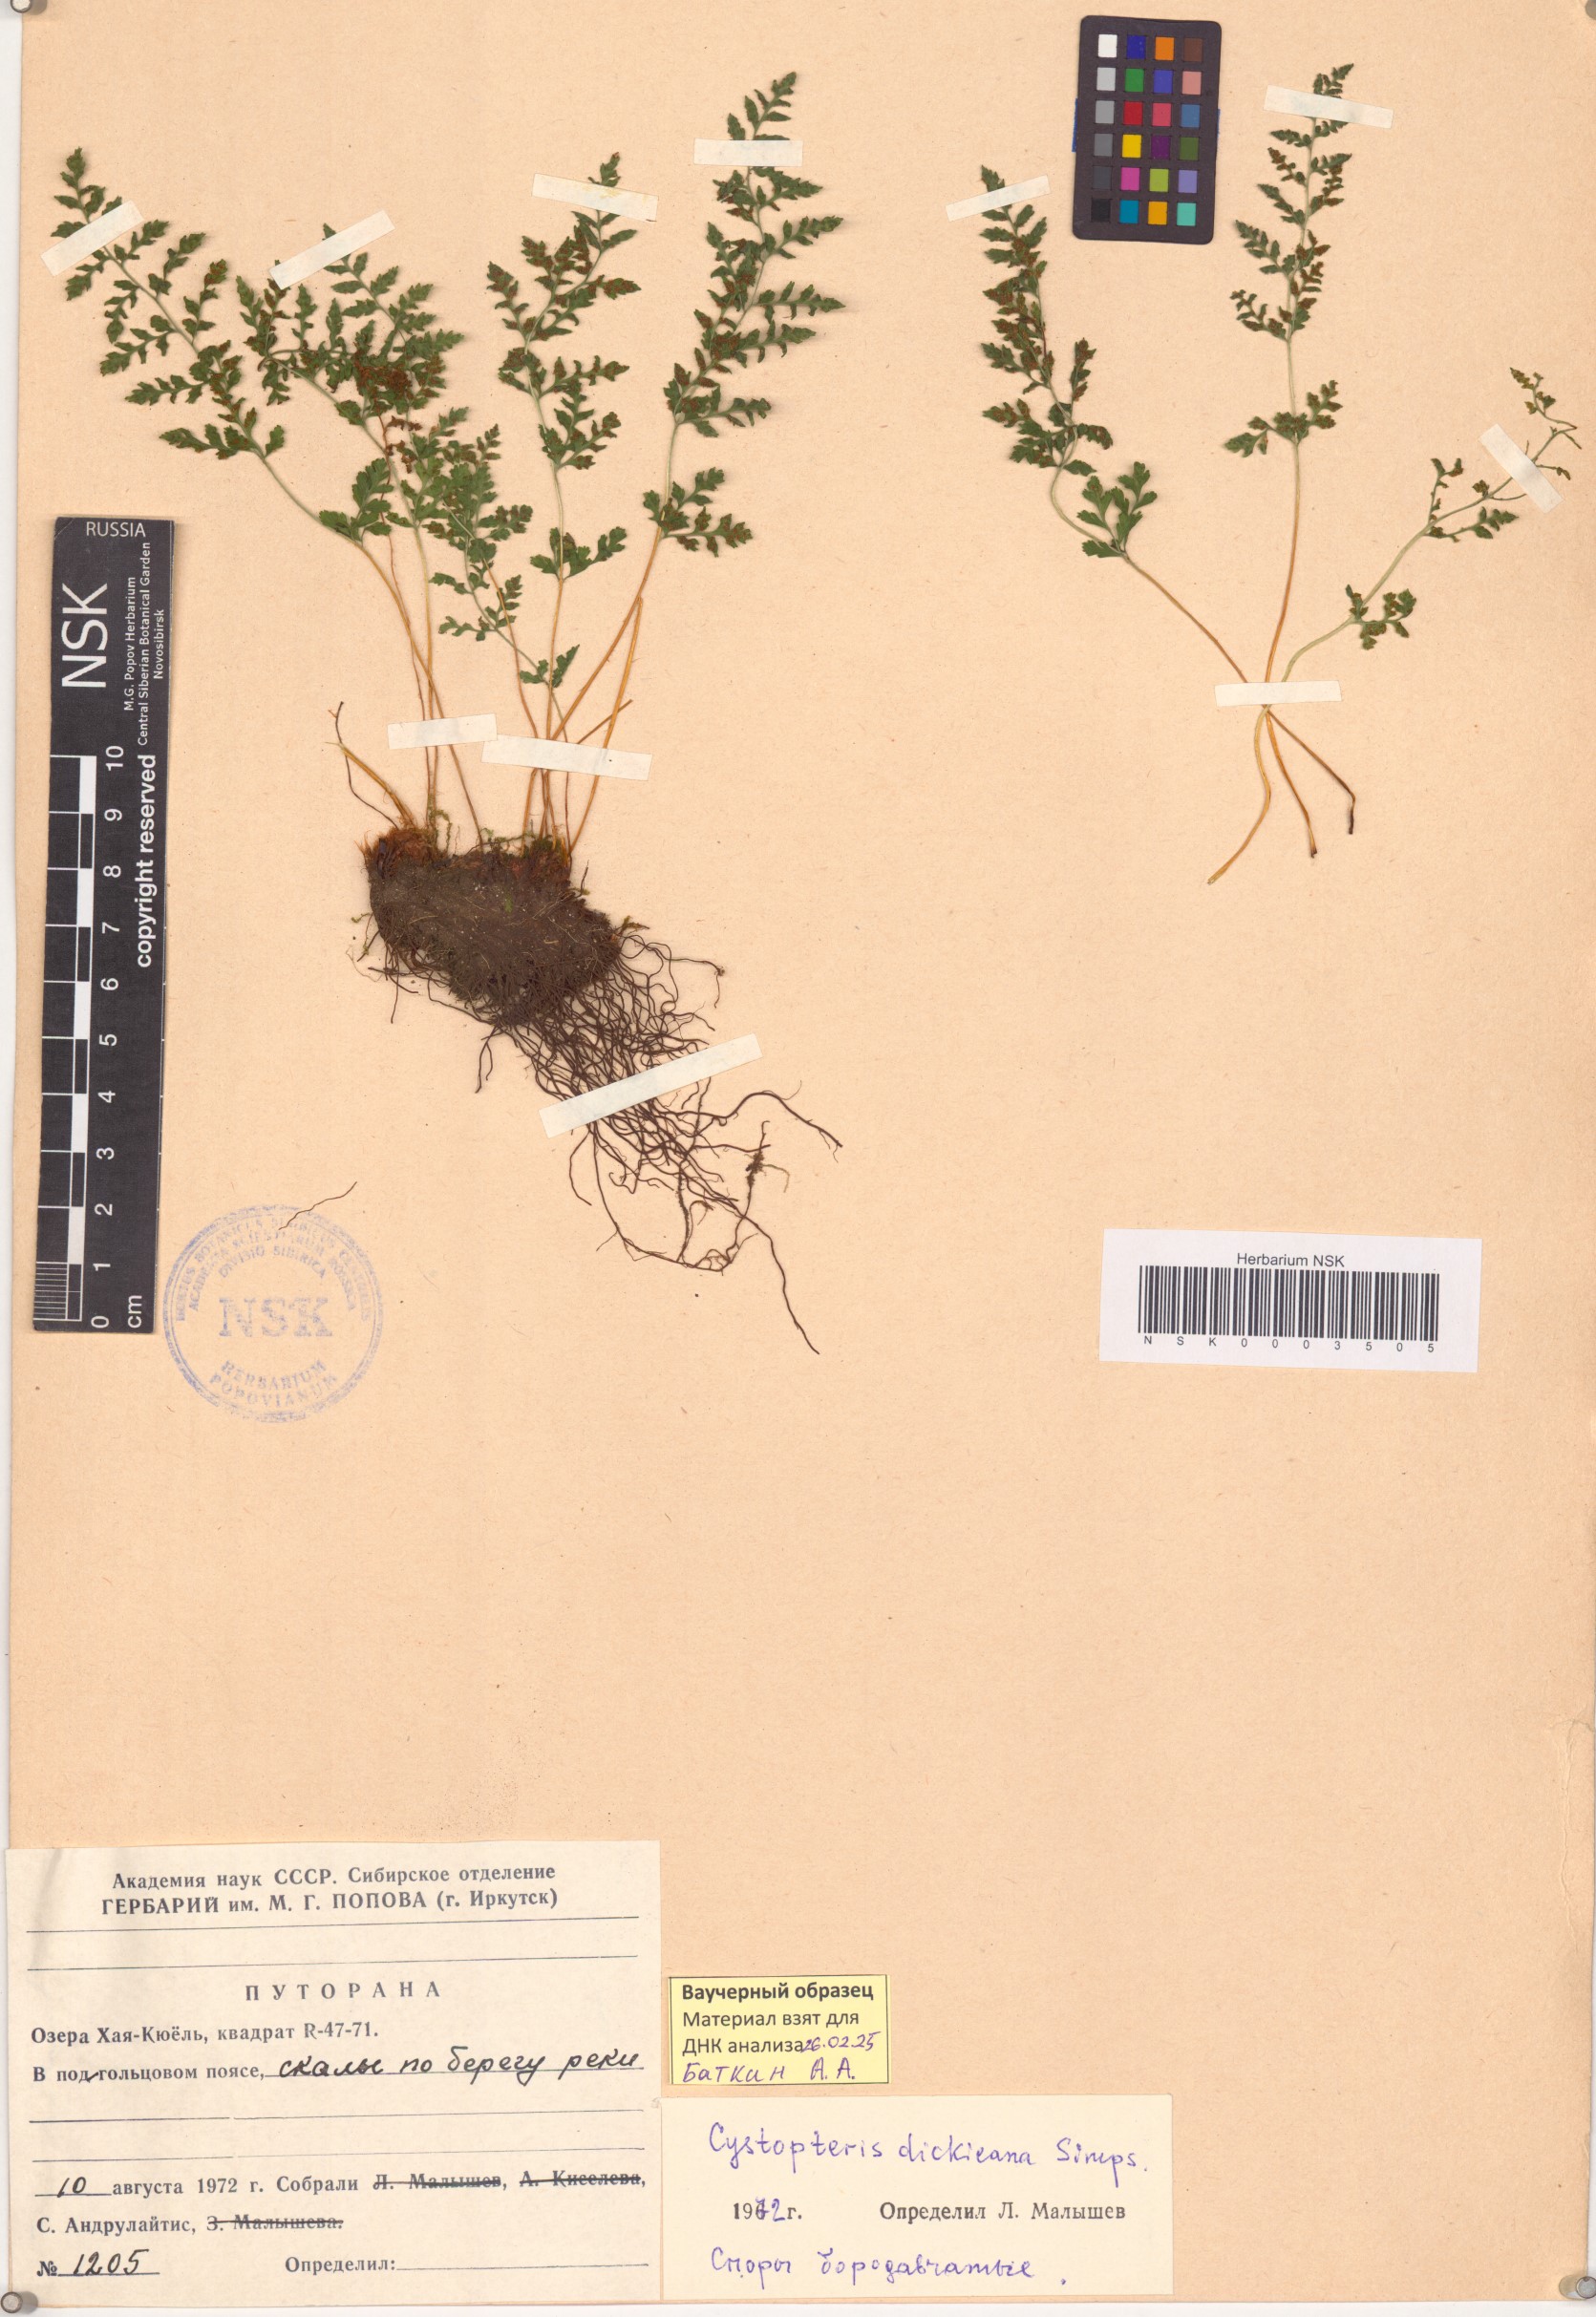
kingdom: Plantae
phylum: Tracheophyta
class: Polypodiopsida
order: Polypodiales
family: Cystopteridaceae
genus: Cystopteris
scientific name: Cystopteris dickieana
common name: Dickie's bladder-fern
